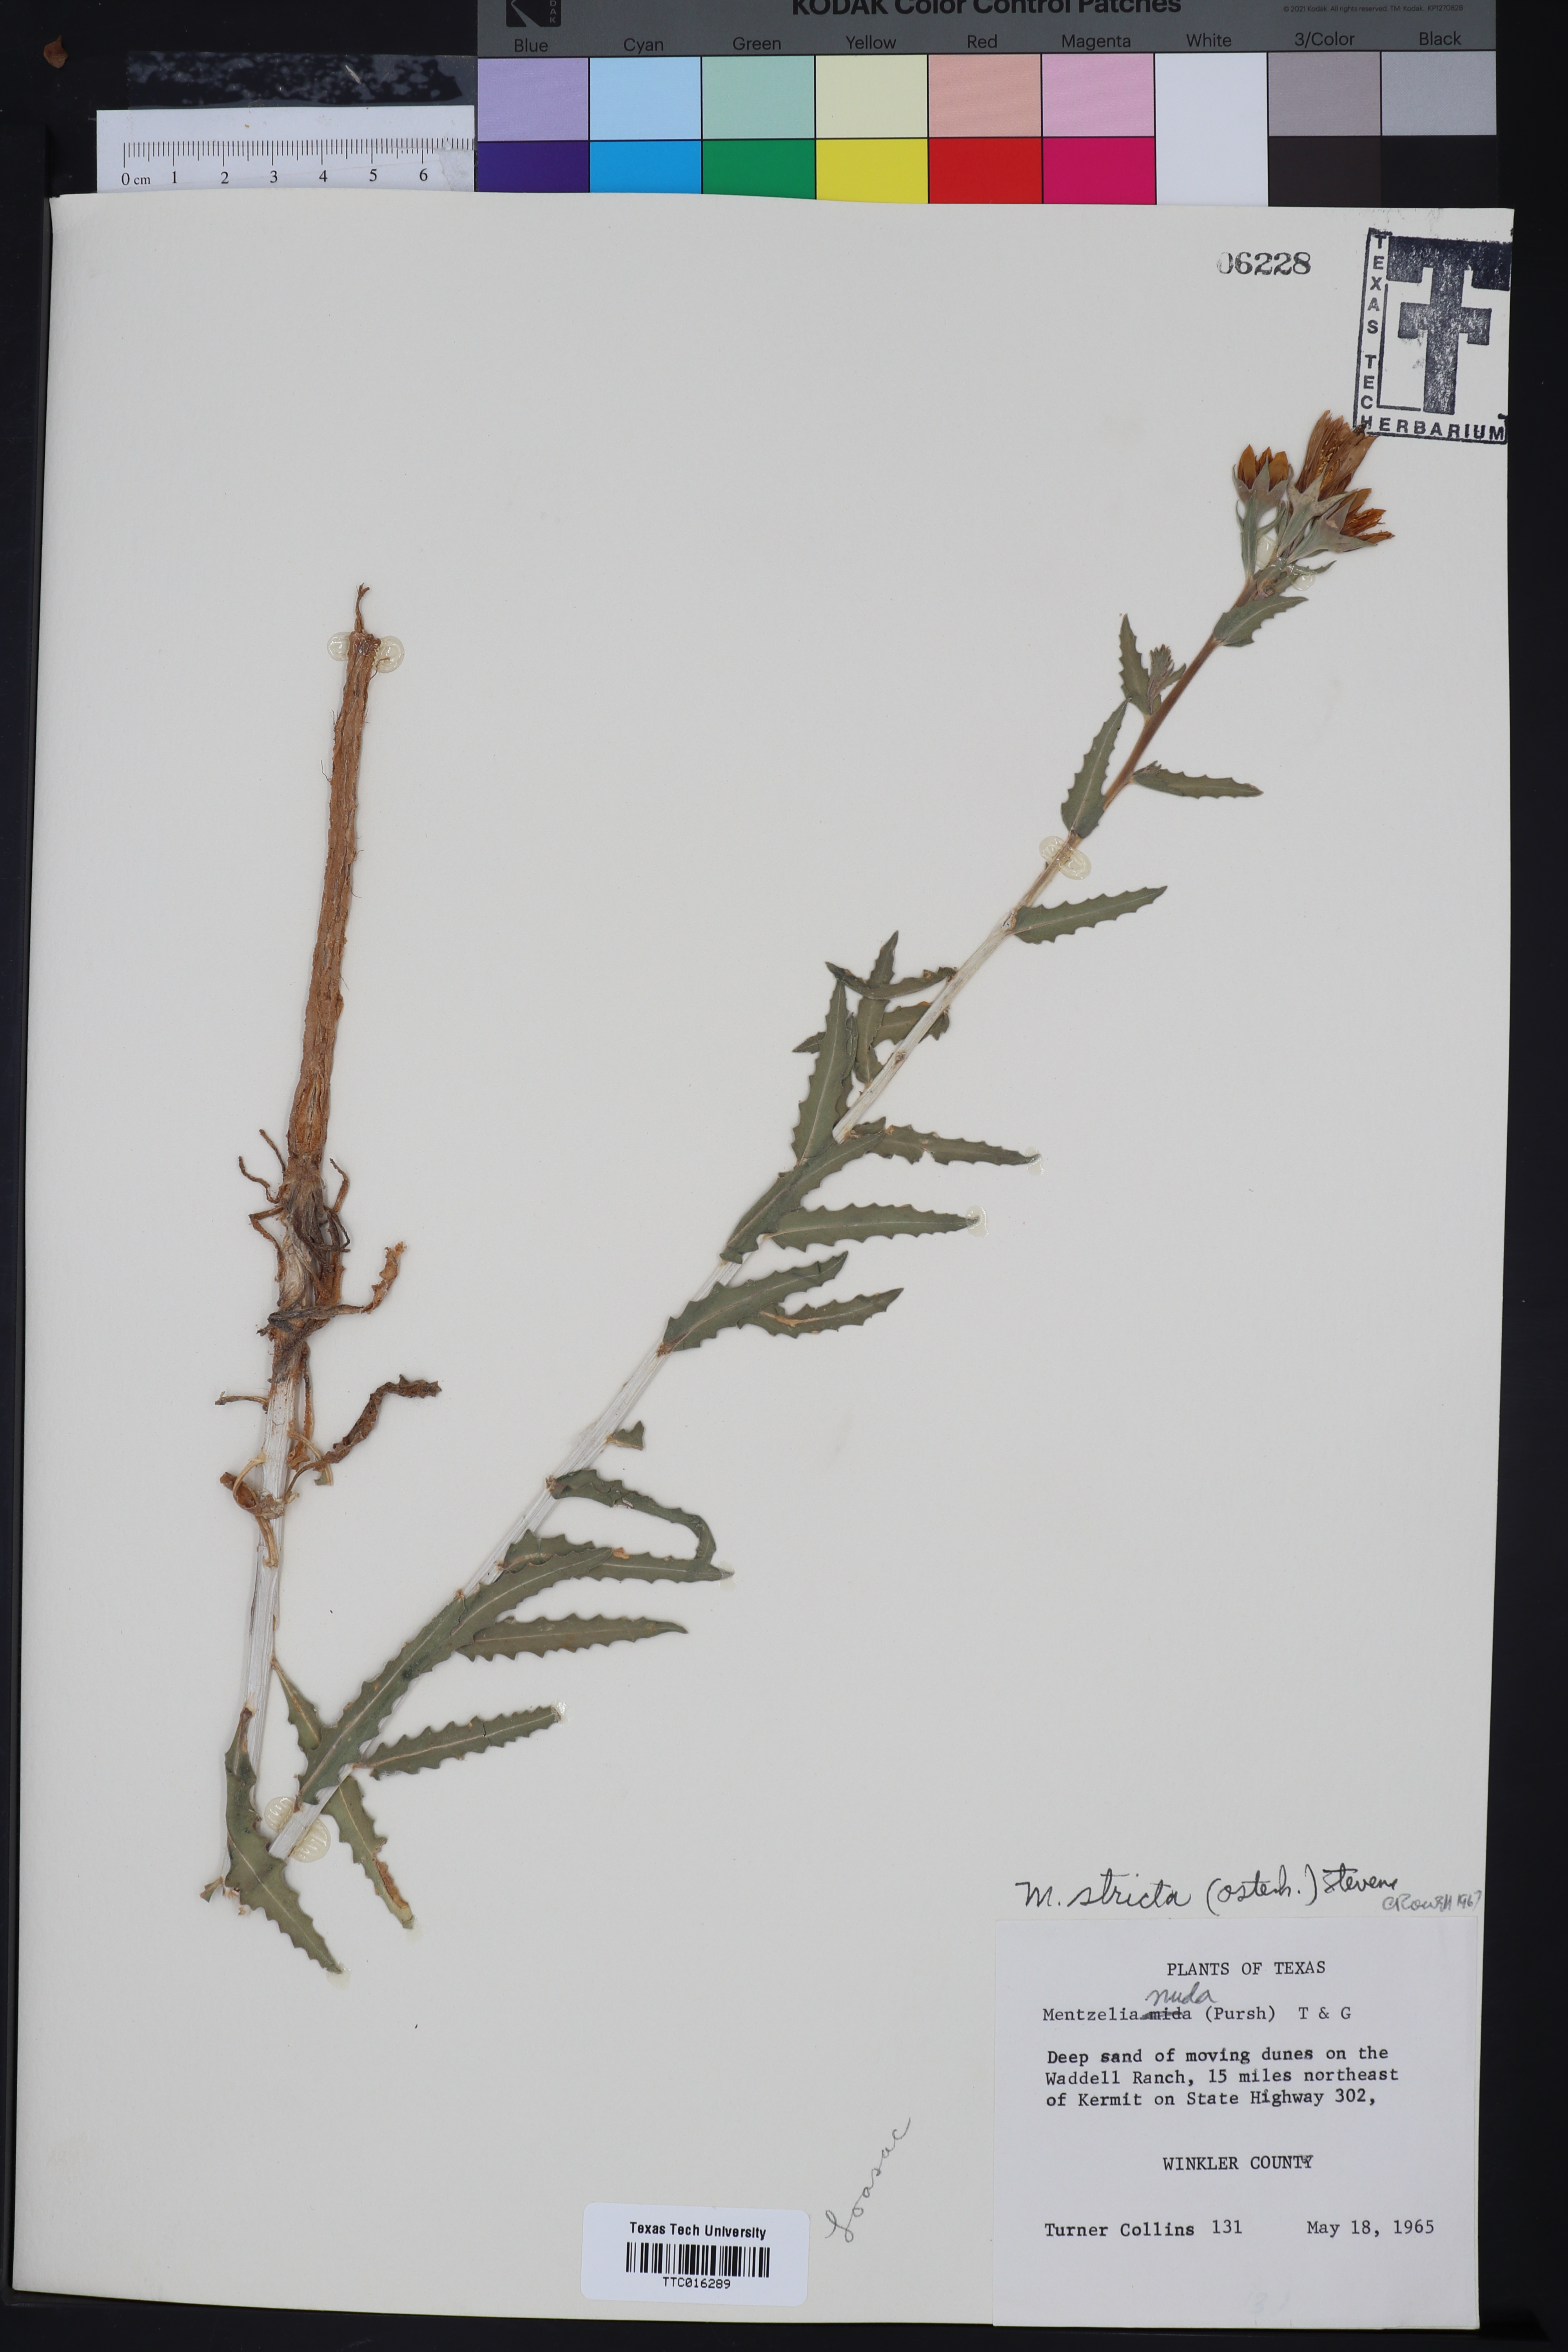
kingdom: Plantae
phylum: Tracheophyta
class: Magnoliopsida
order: Cornales
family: Loasaceae
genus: Mentzelia
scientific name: Mentzelia nuda
